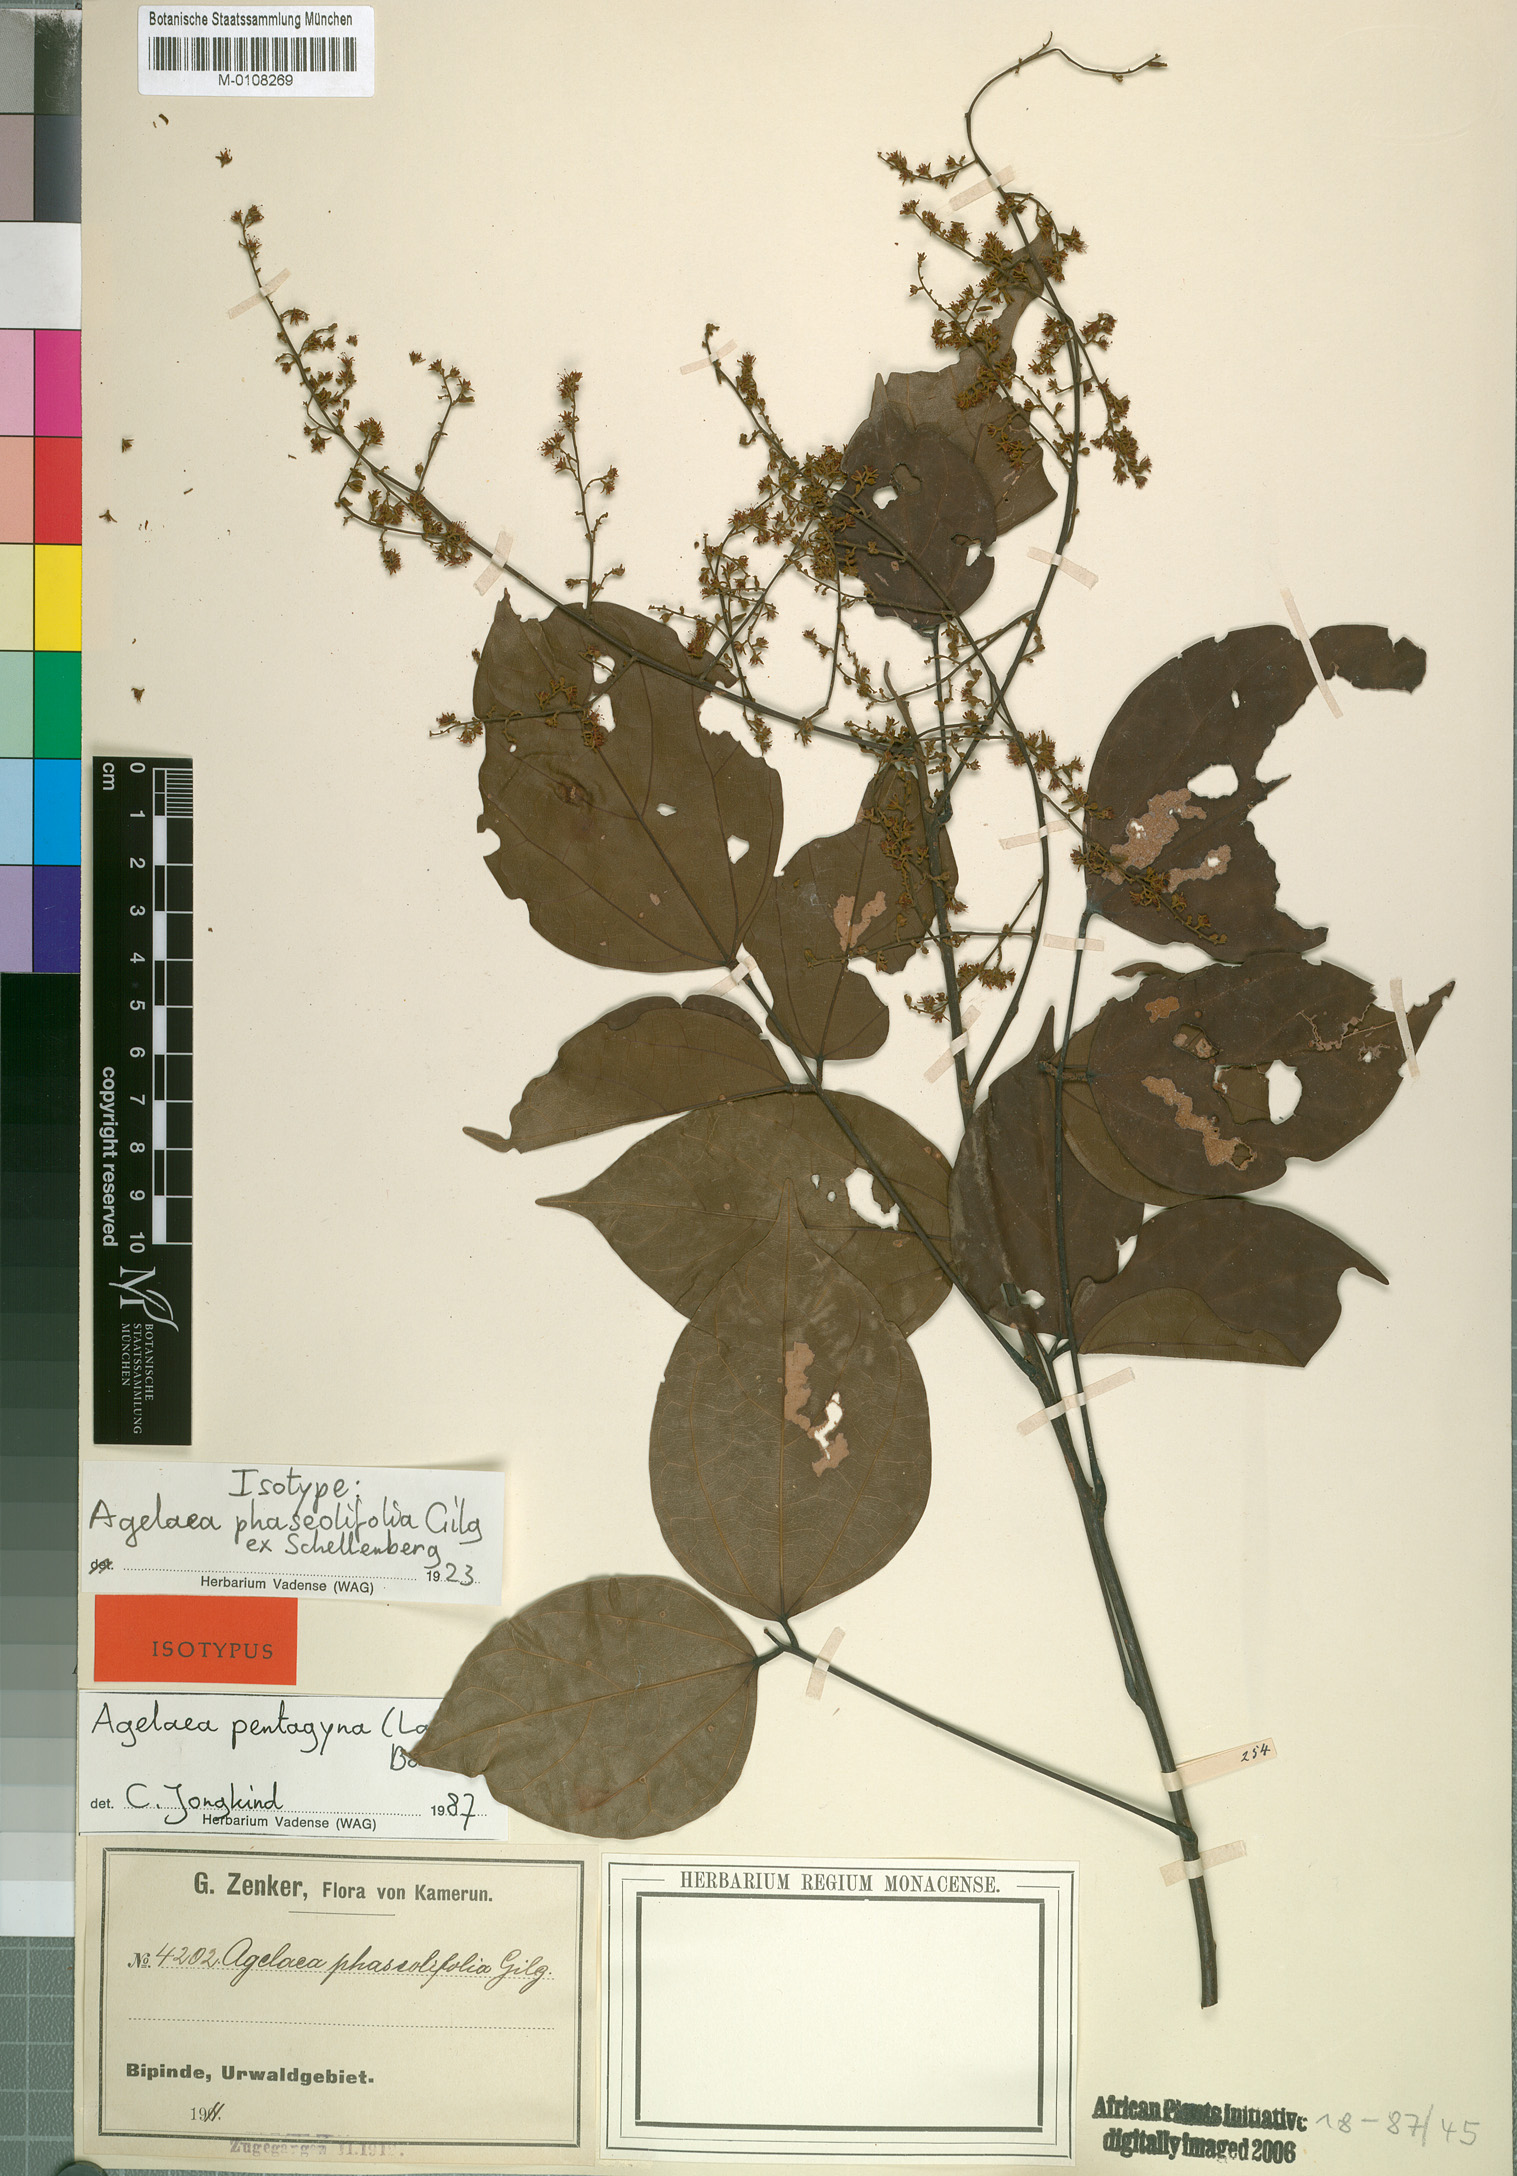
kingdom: Plantae
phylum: Tracheophyta
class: Magnoliopsida
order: Oxalidales
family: Connaraceae
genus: Agelaea
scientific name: Agelaea pentagyna
